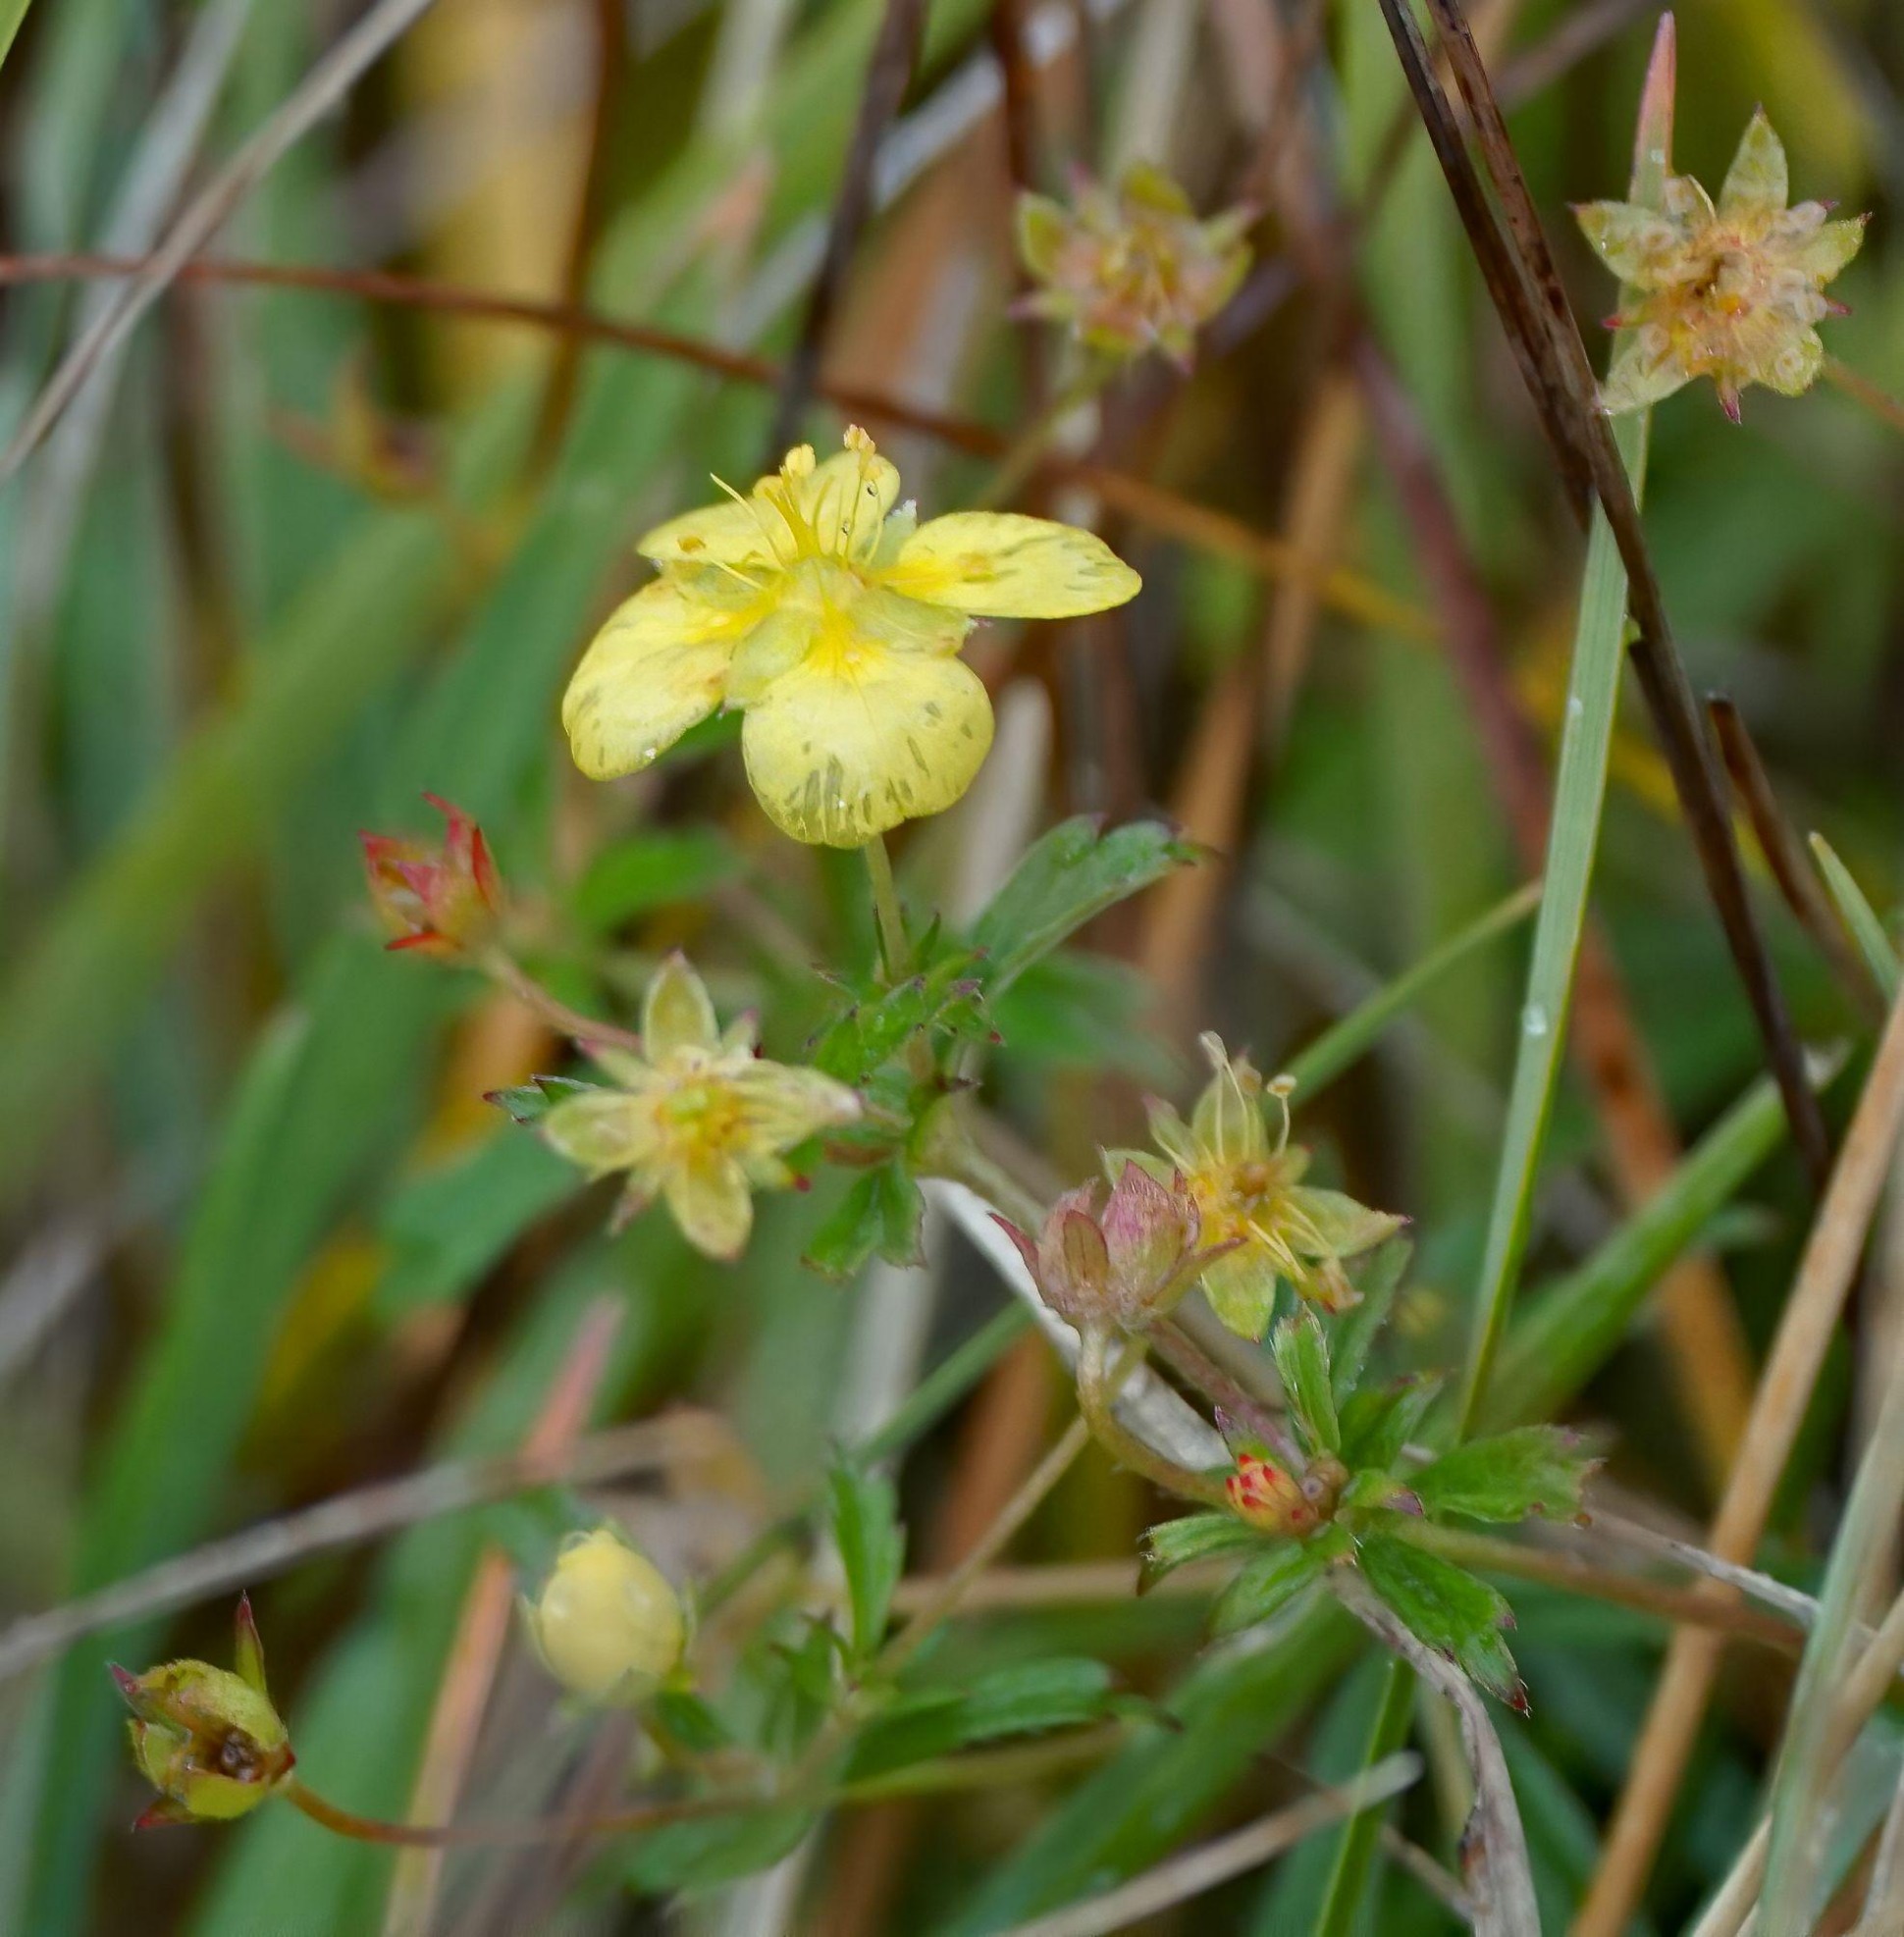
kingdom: Plantae
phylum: Tracheophyta
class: Magnoliopsida
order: Rosales
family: Rosaceae
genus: Potentilla
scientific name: Potentilla erecta
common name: Tormentil
